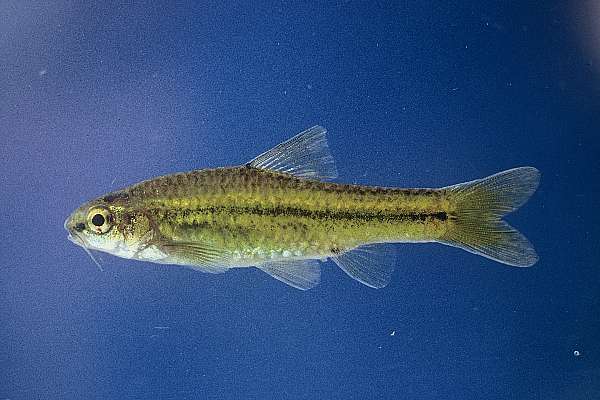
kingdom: Animalia
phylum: Chordata
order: Cypriniformes
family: Cyprinidae
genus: Barbus
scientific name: Barbus
